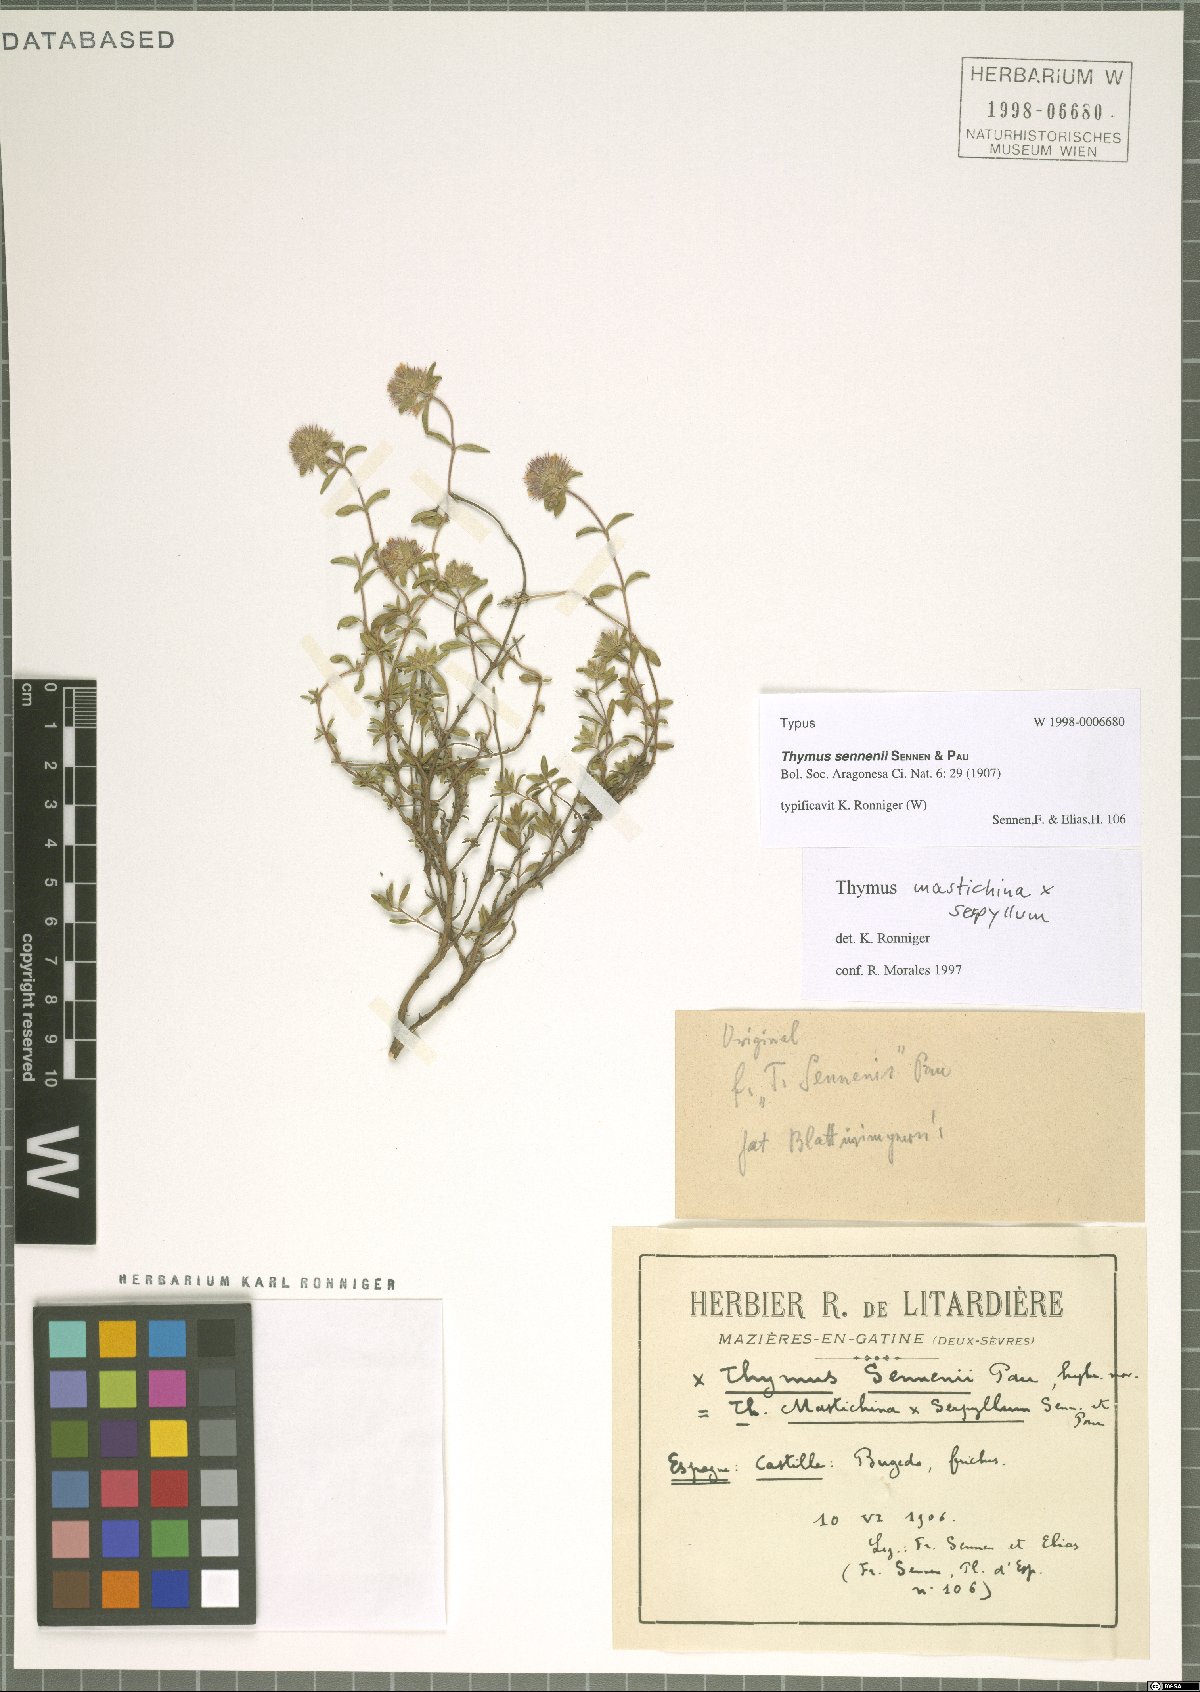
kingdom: Plantae
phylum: Tracheophyta
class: Magnoliopsida
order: Lamiales
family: Lamiaceae
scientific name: Lamiaceae
